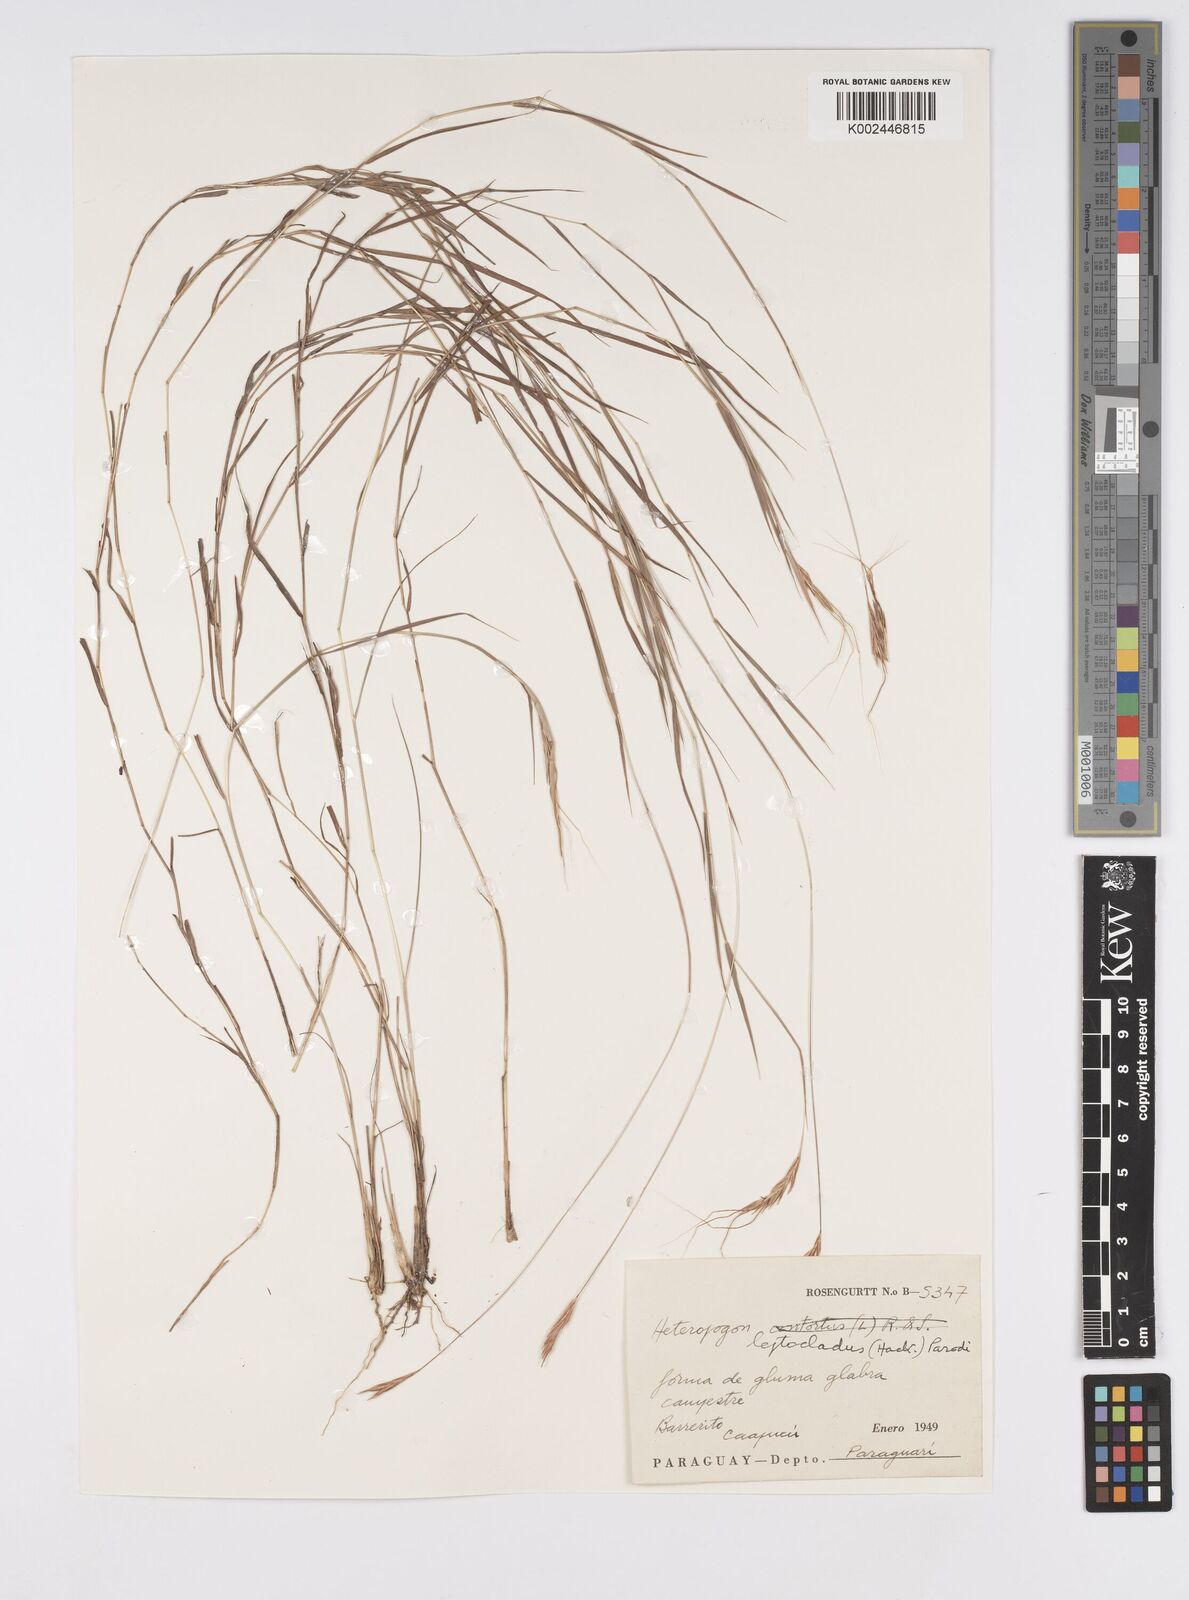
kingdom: Plantae
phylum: Tracheophyta
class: Liliopsida
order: Poales
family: Poaceae
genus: Agenium
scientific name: Agenium leptocladum
